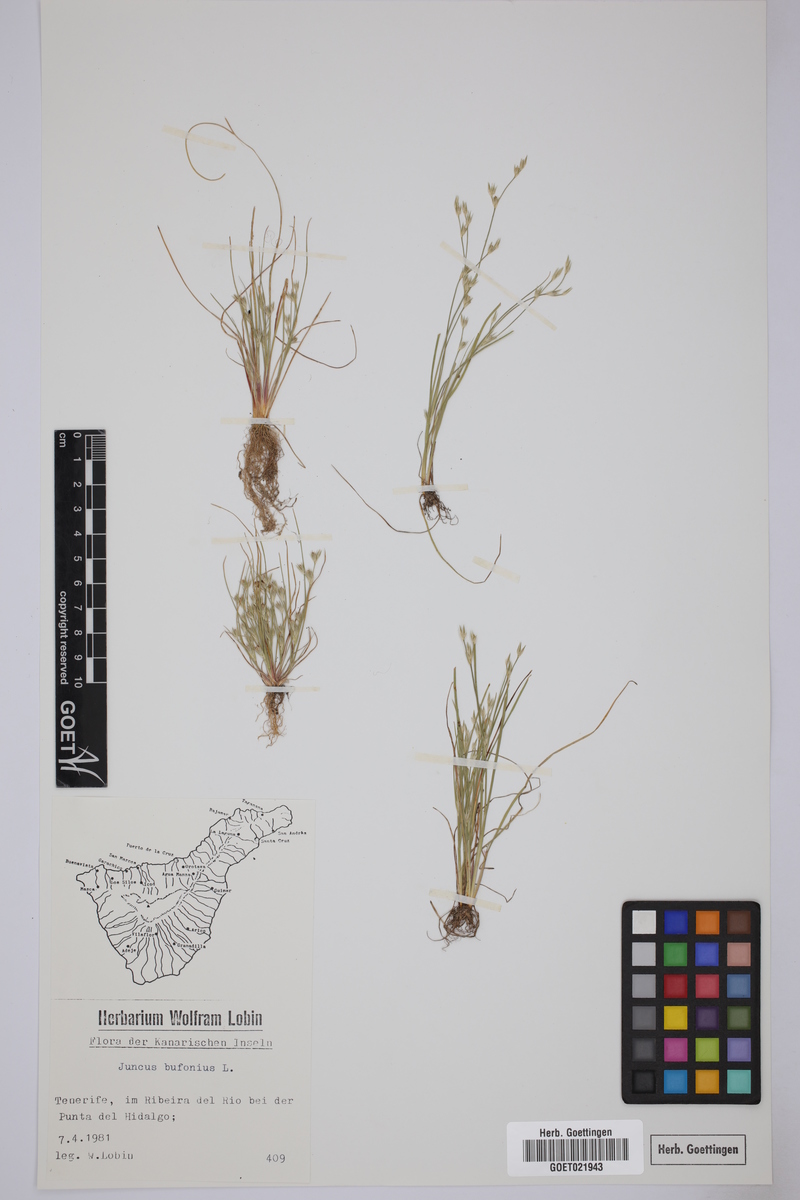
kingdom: Plantae
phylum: Tracheophyta
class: Liliopsida
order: Poales
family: Juncaceae
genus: Juncus
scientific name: Juncus bufonius
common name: Toad rush
